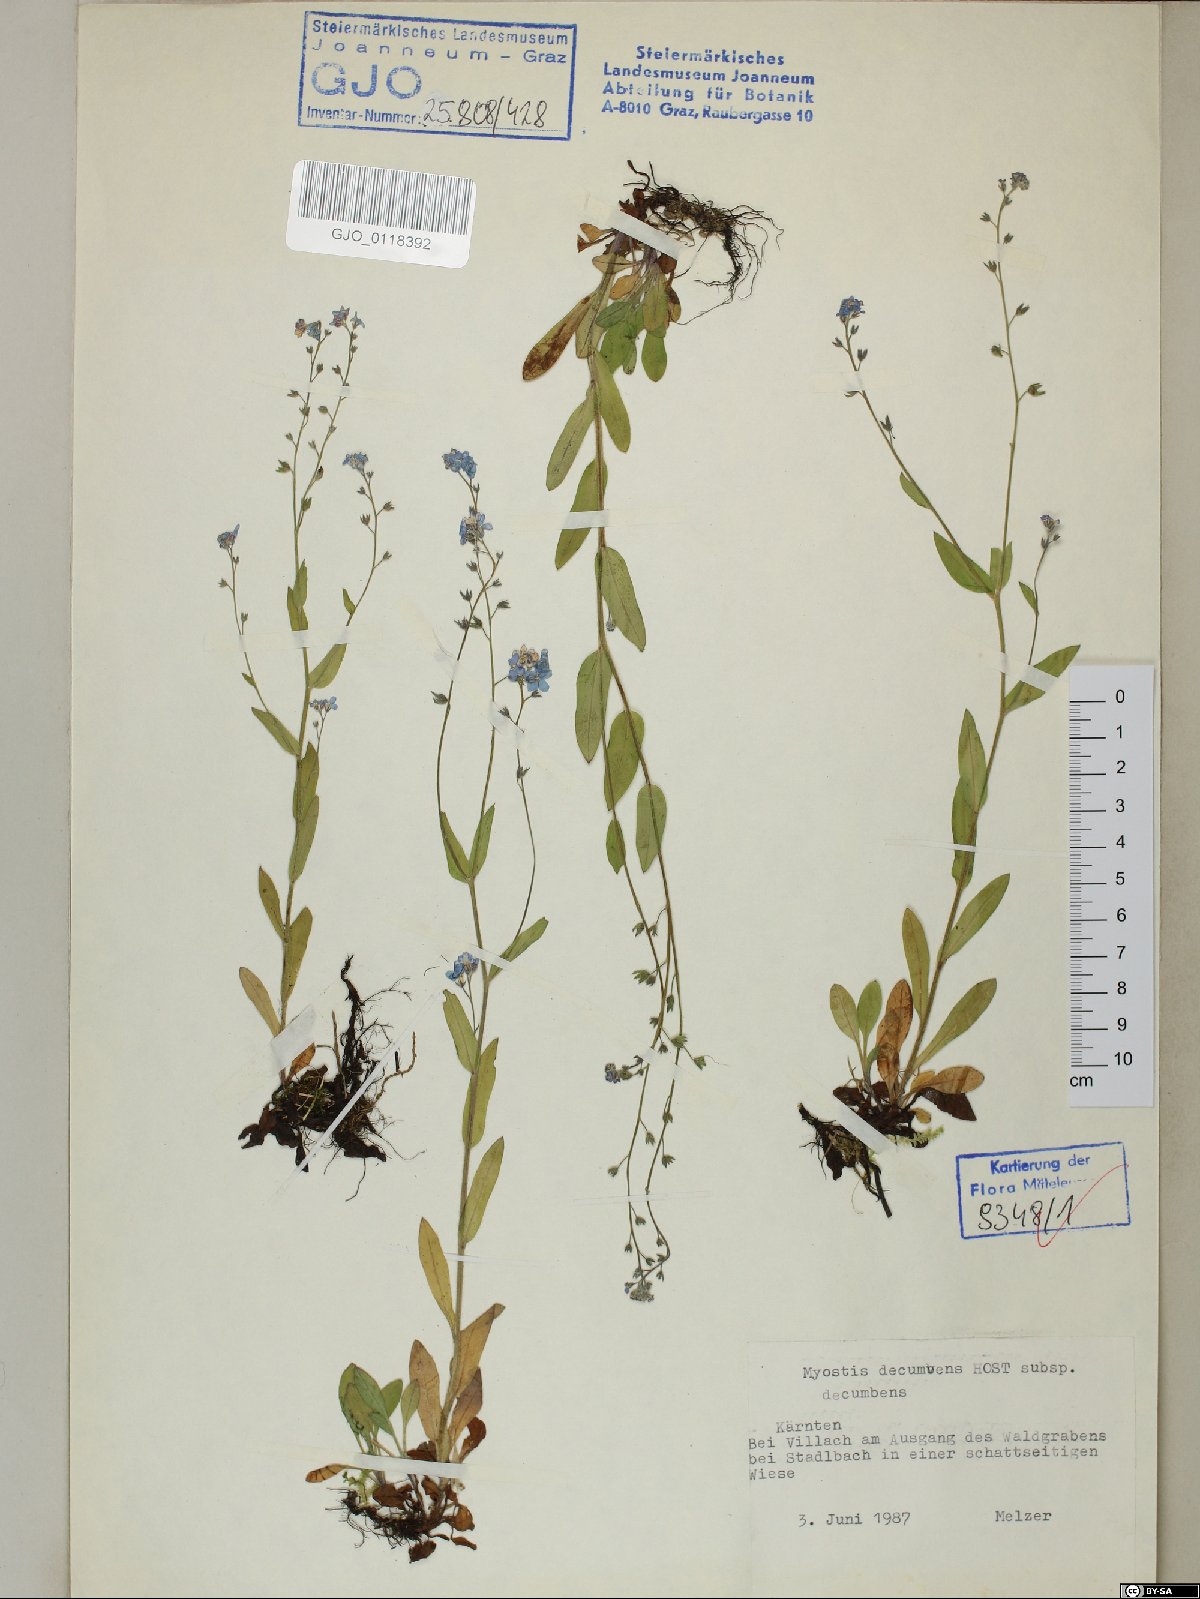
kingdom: Plantae
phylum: Tracheophyta
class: Magnoliopsida
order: Boraginales
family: Boraginaceae
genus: Myosotis
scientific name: Myosotis decumbens
